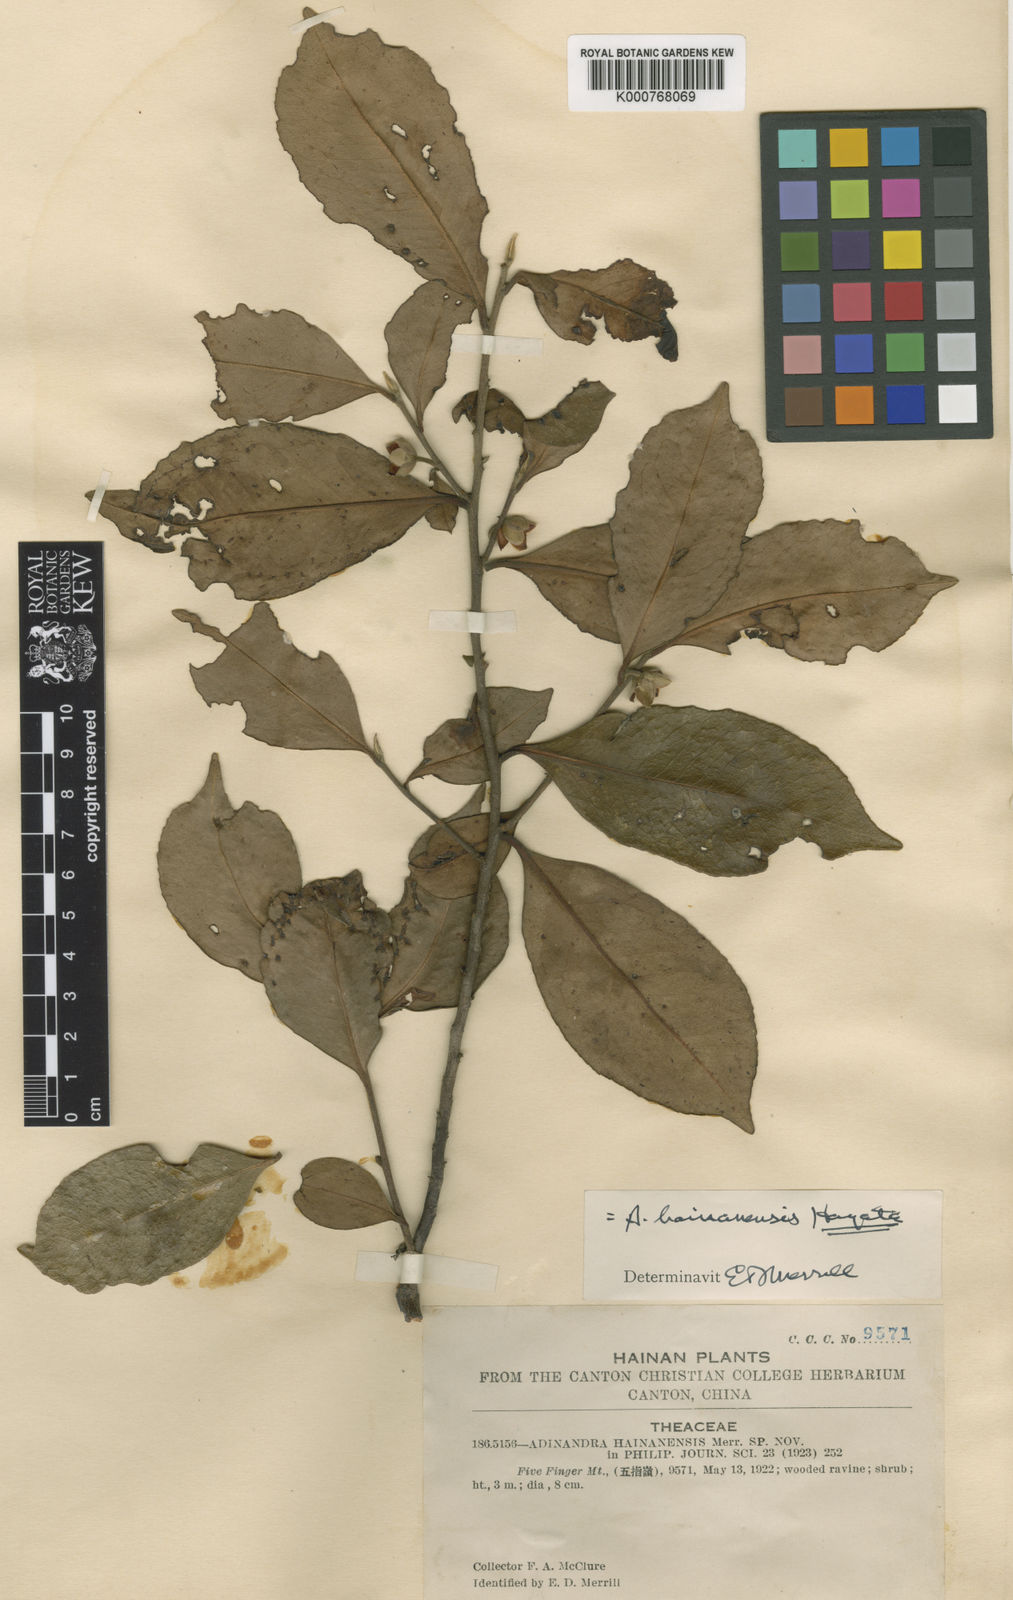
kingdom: Plantae
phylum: Tracheophyta
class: Magnoliopsida
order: Ericales
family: Pentaphylacaceae
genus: Adinandra
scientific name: Adinandra hainanensis
